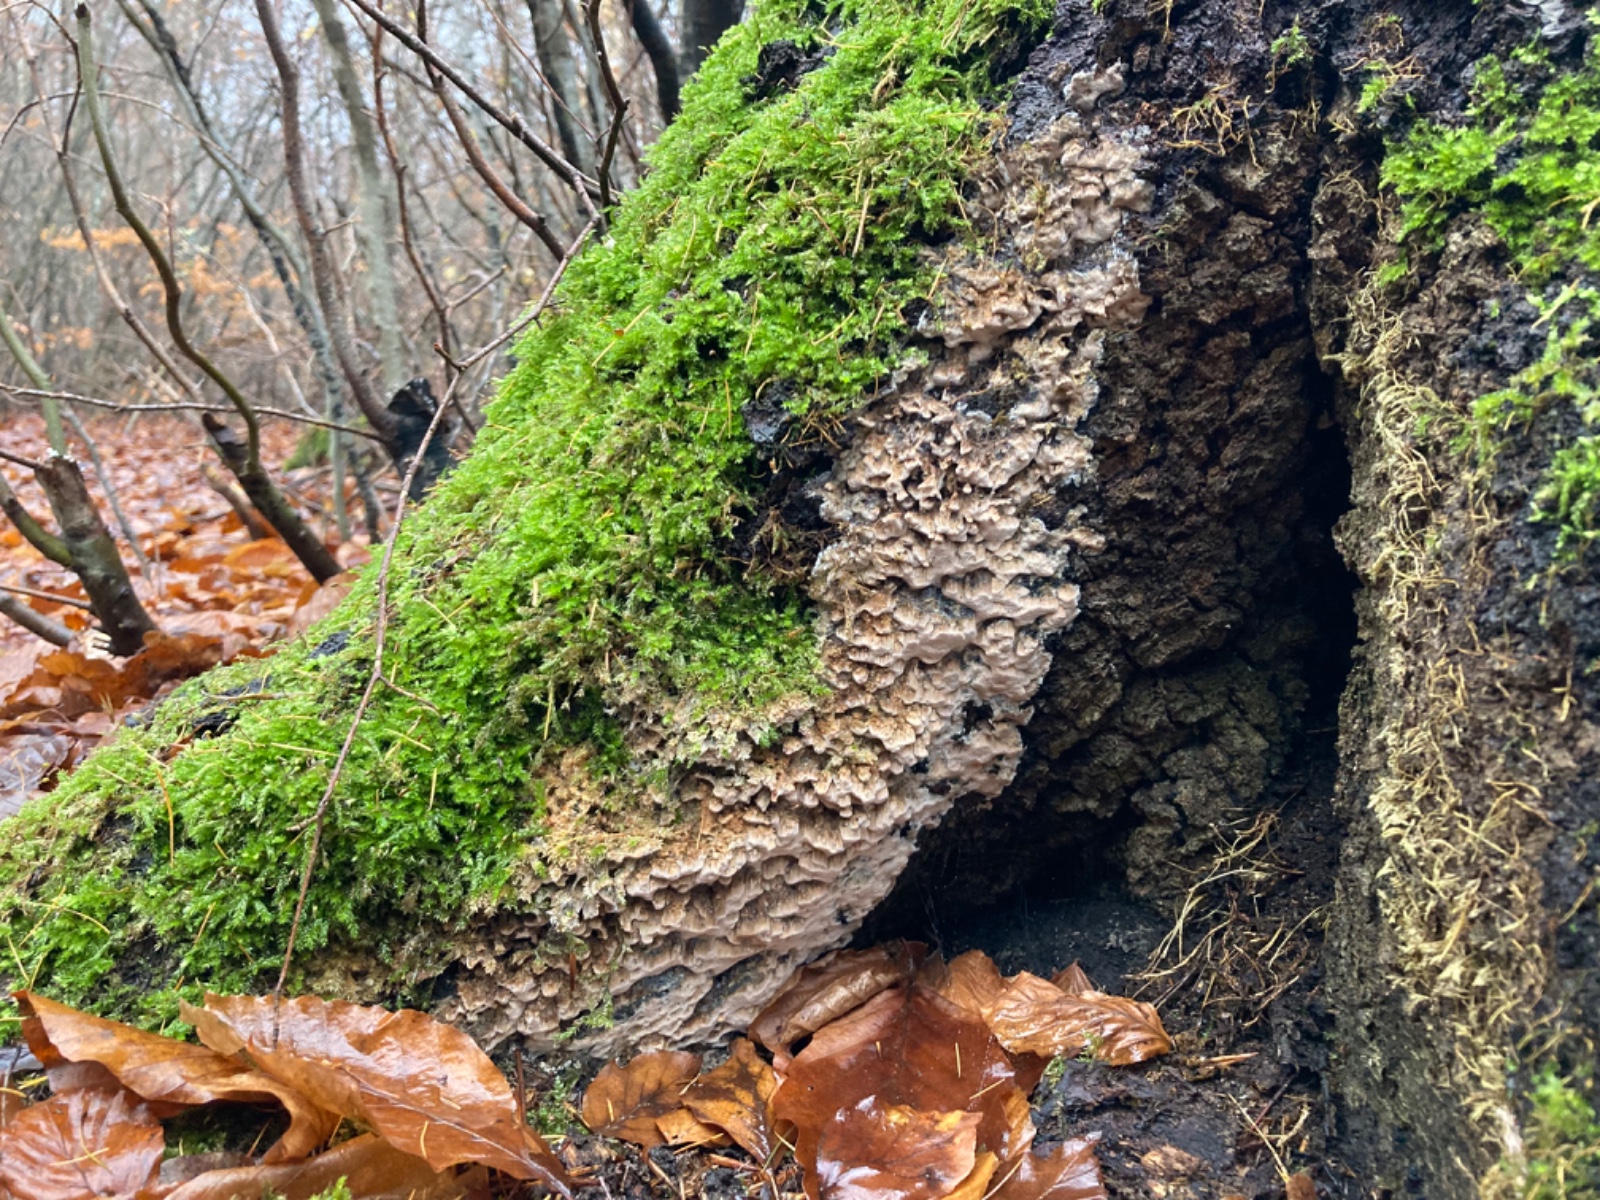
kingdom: Fungi
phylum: Basidiomycota
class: Agaricomycetes
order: Polyporales
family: Meruliaceae
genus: Mycoacia
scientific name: Mycoacia gilvescens
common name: rosa pastelporesvamp
